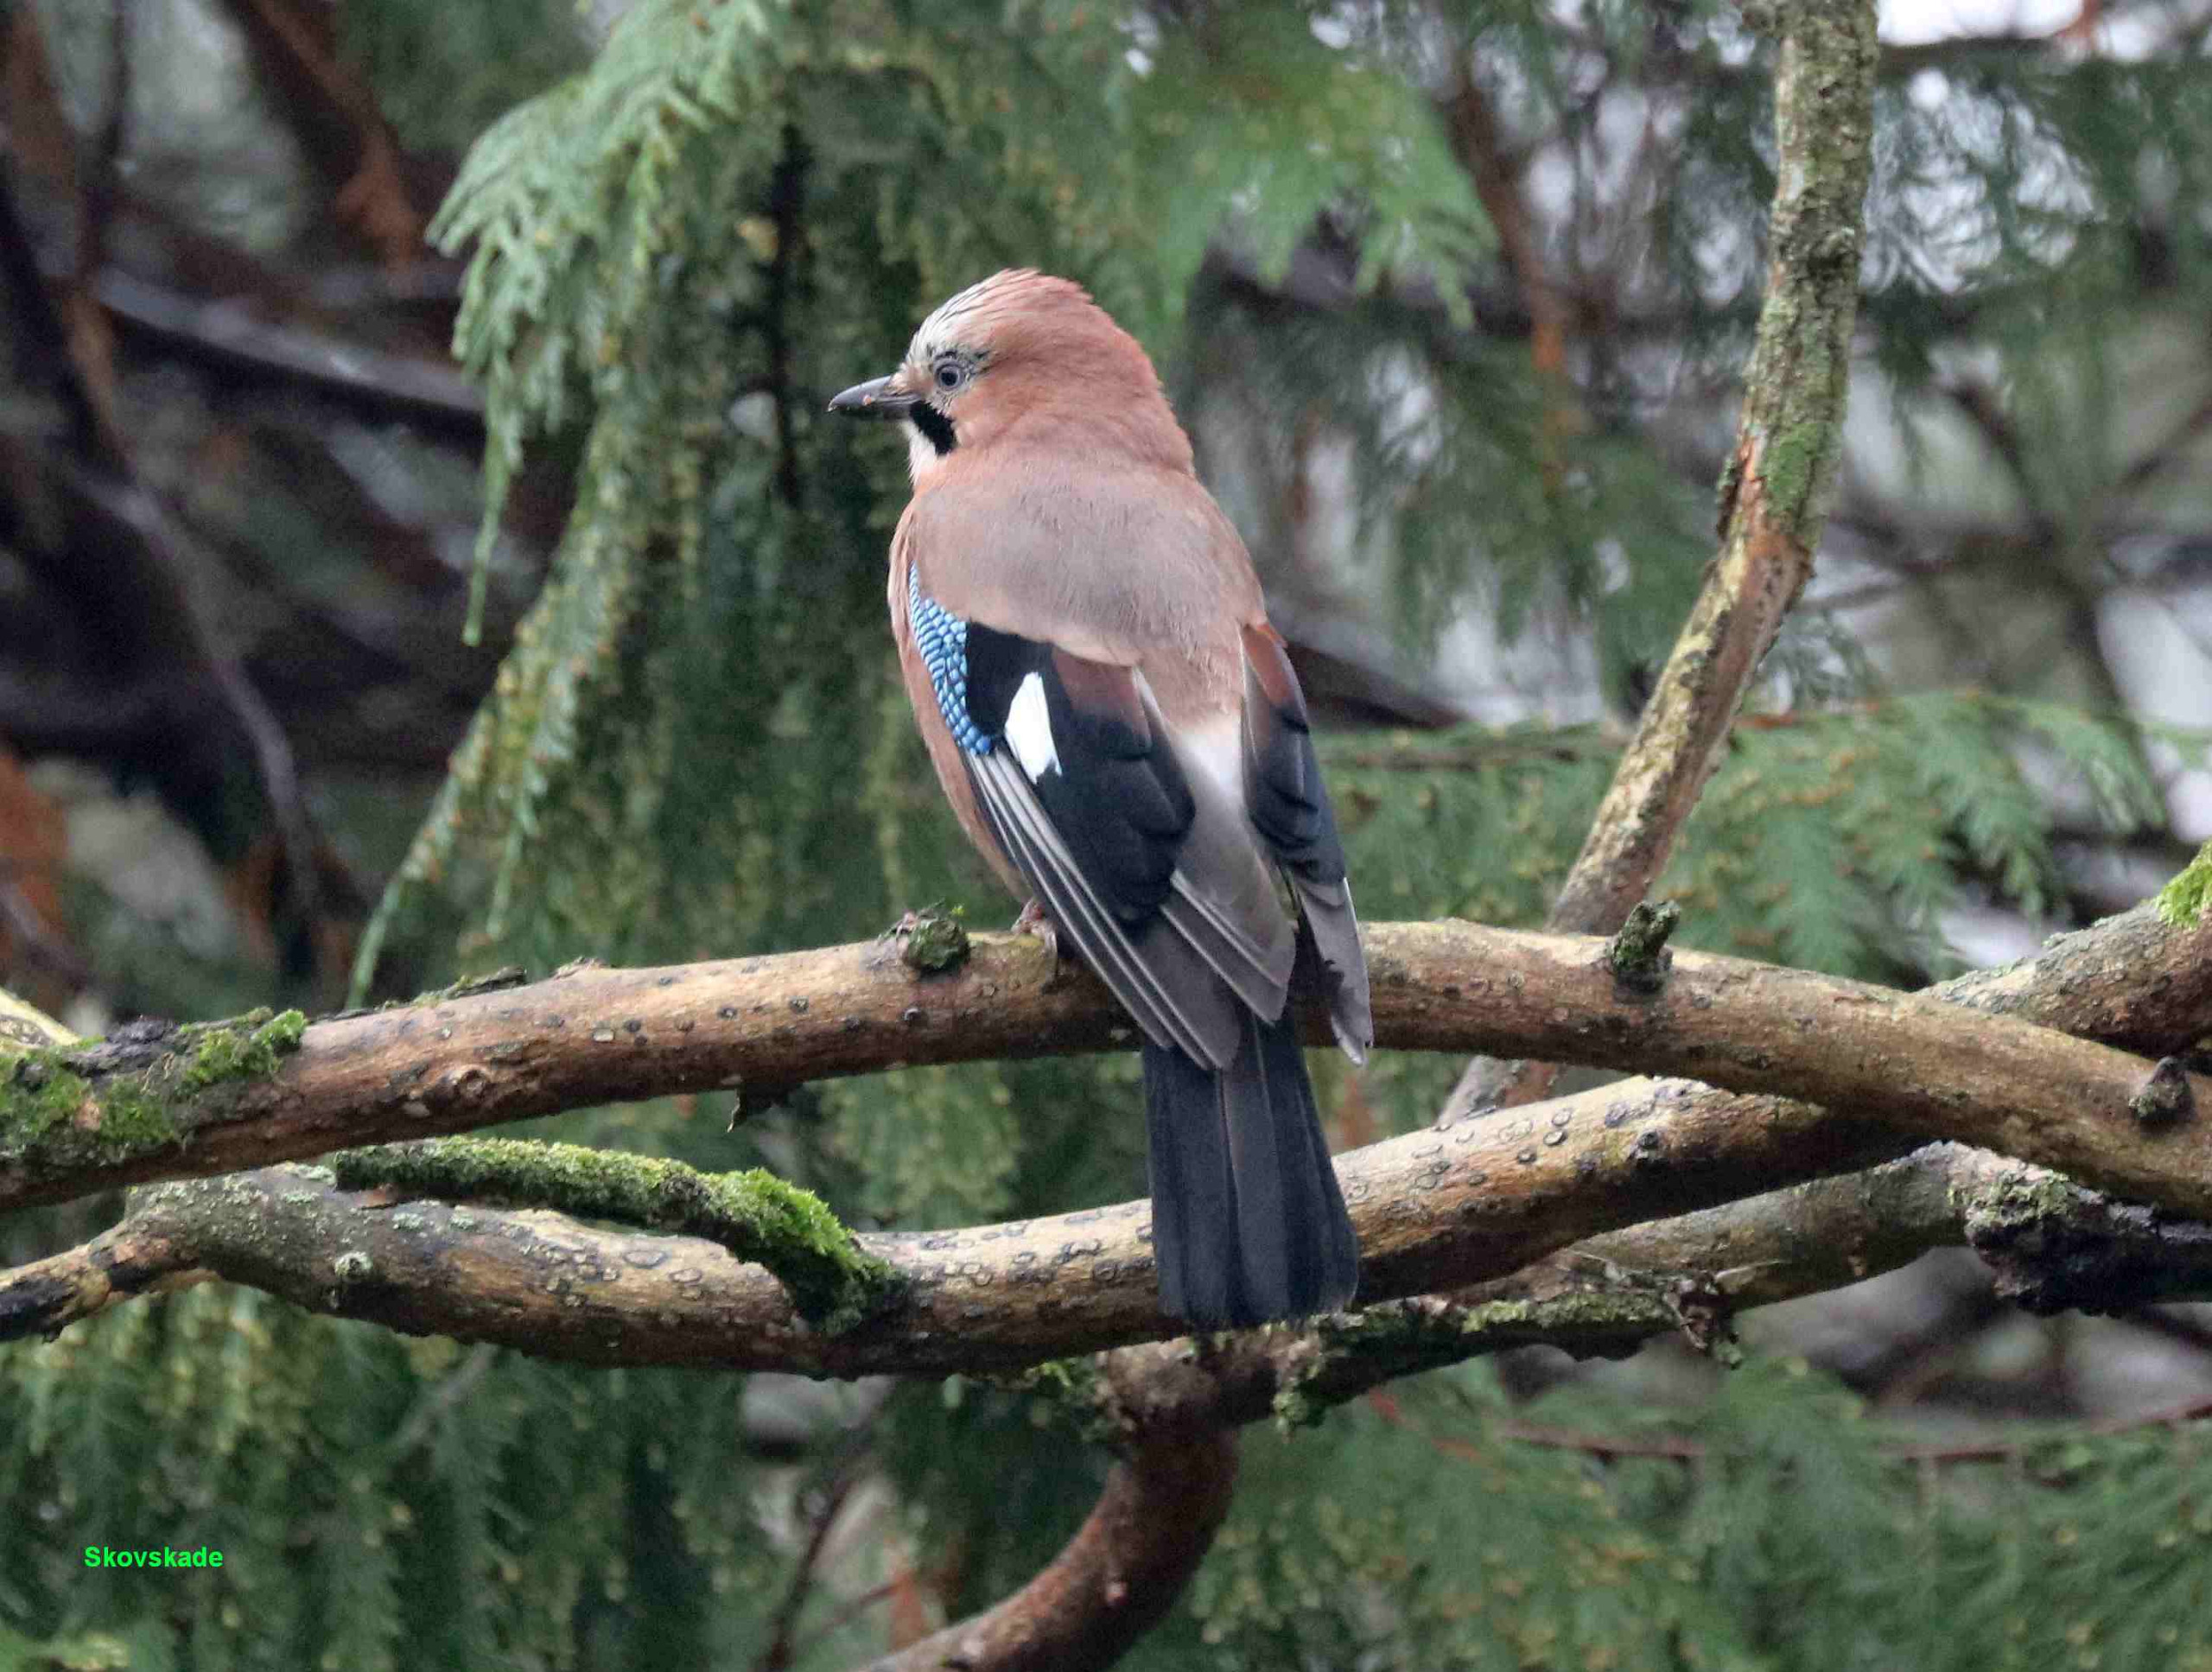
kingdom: Animalia
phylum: Chordata
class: Aves
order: Passeriformes
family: Corvidae
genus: Garrulus
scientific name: Garrulus glandarius
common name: Skovskade
